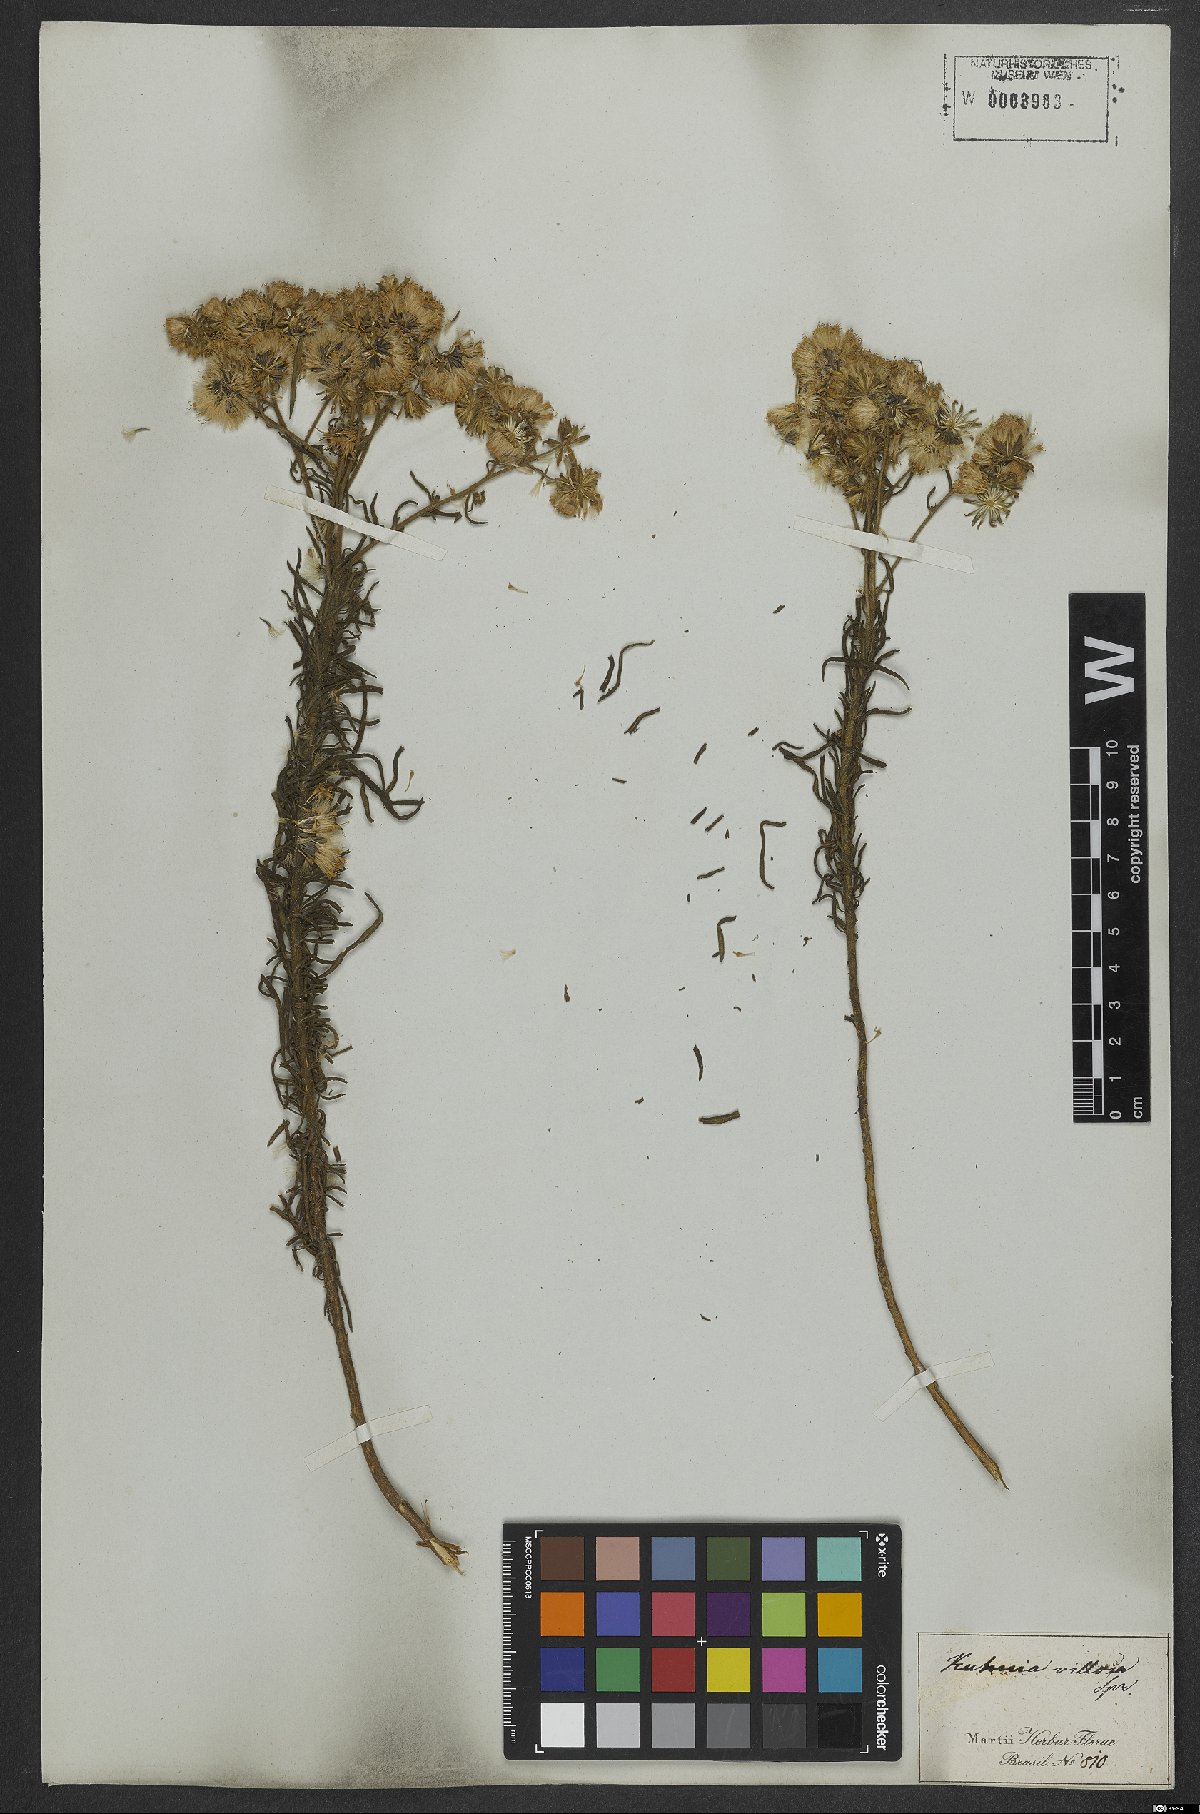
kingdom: Plantae
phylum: Tracheophyta
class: Magnoliopsida
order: Asterales
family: Asteraceae
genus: Trichogonia
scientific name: Trichogonia villosa
